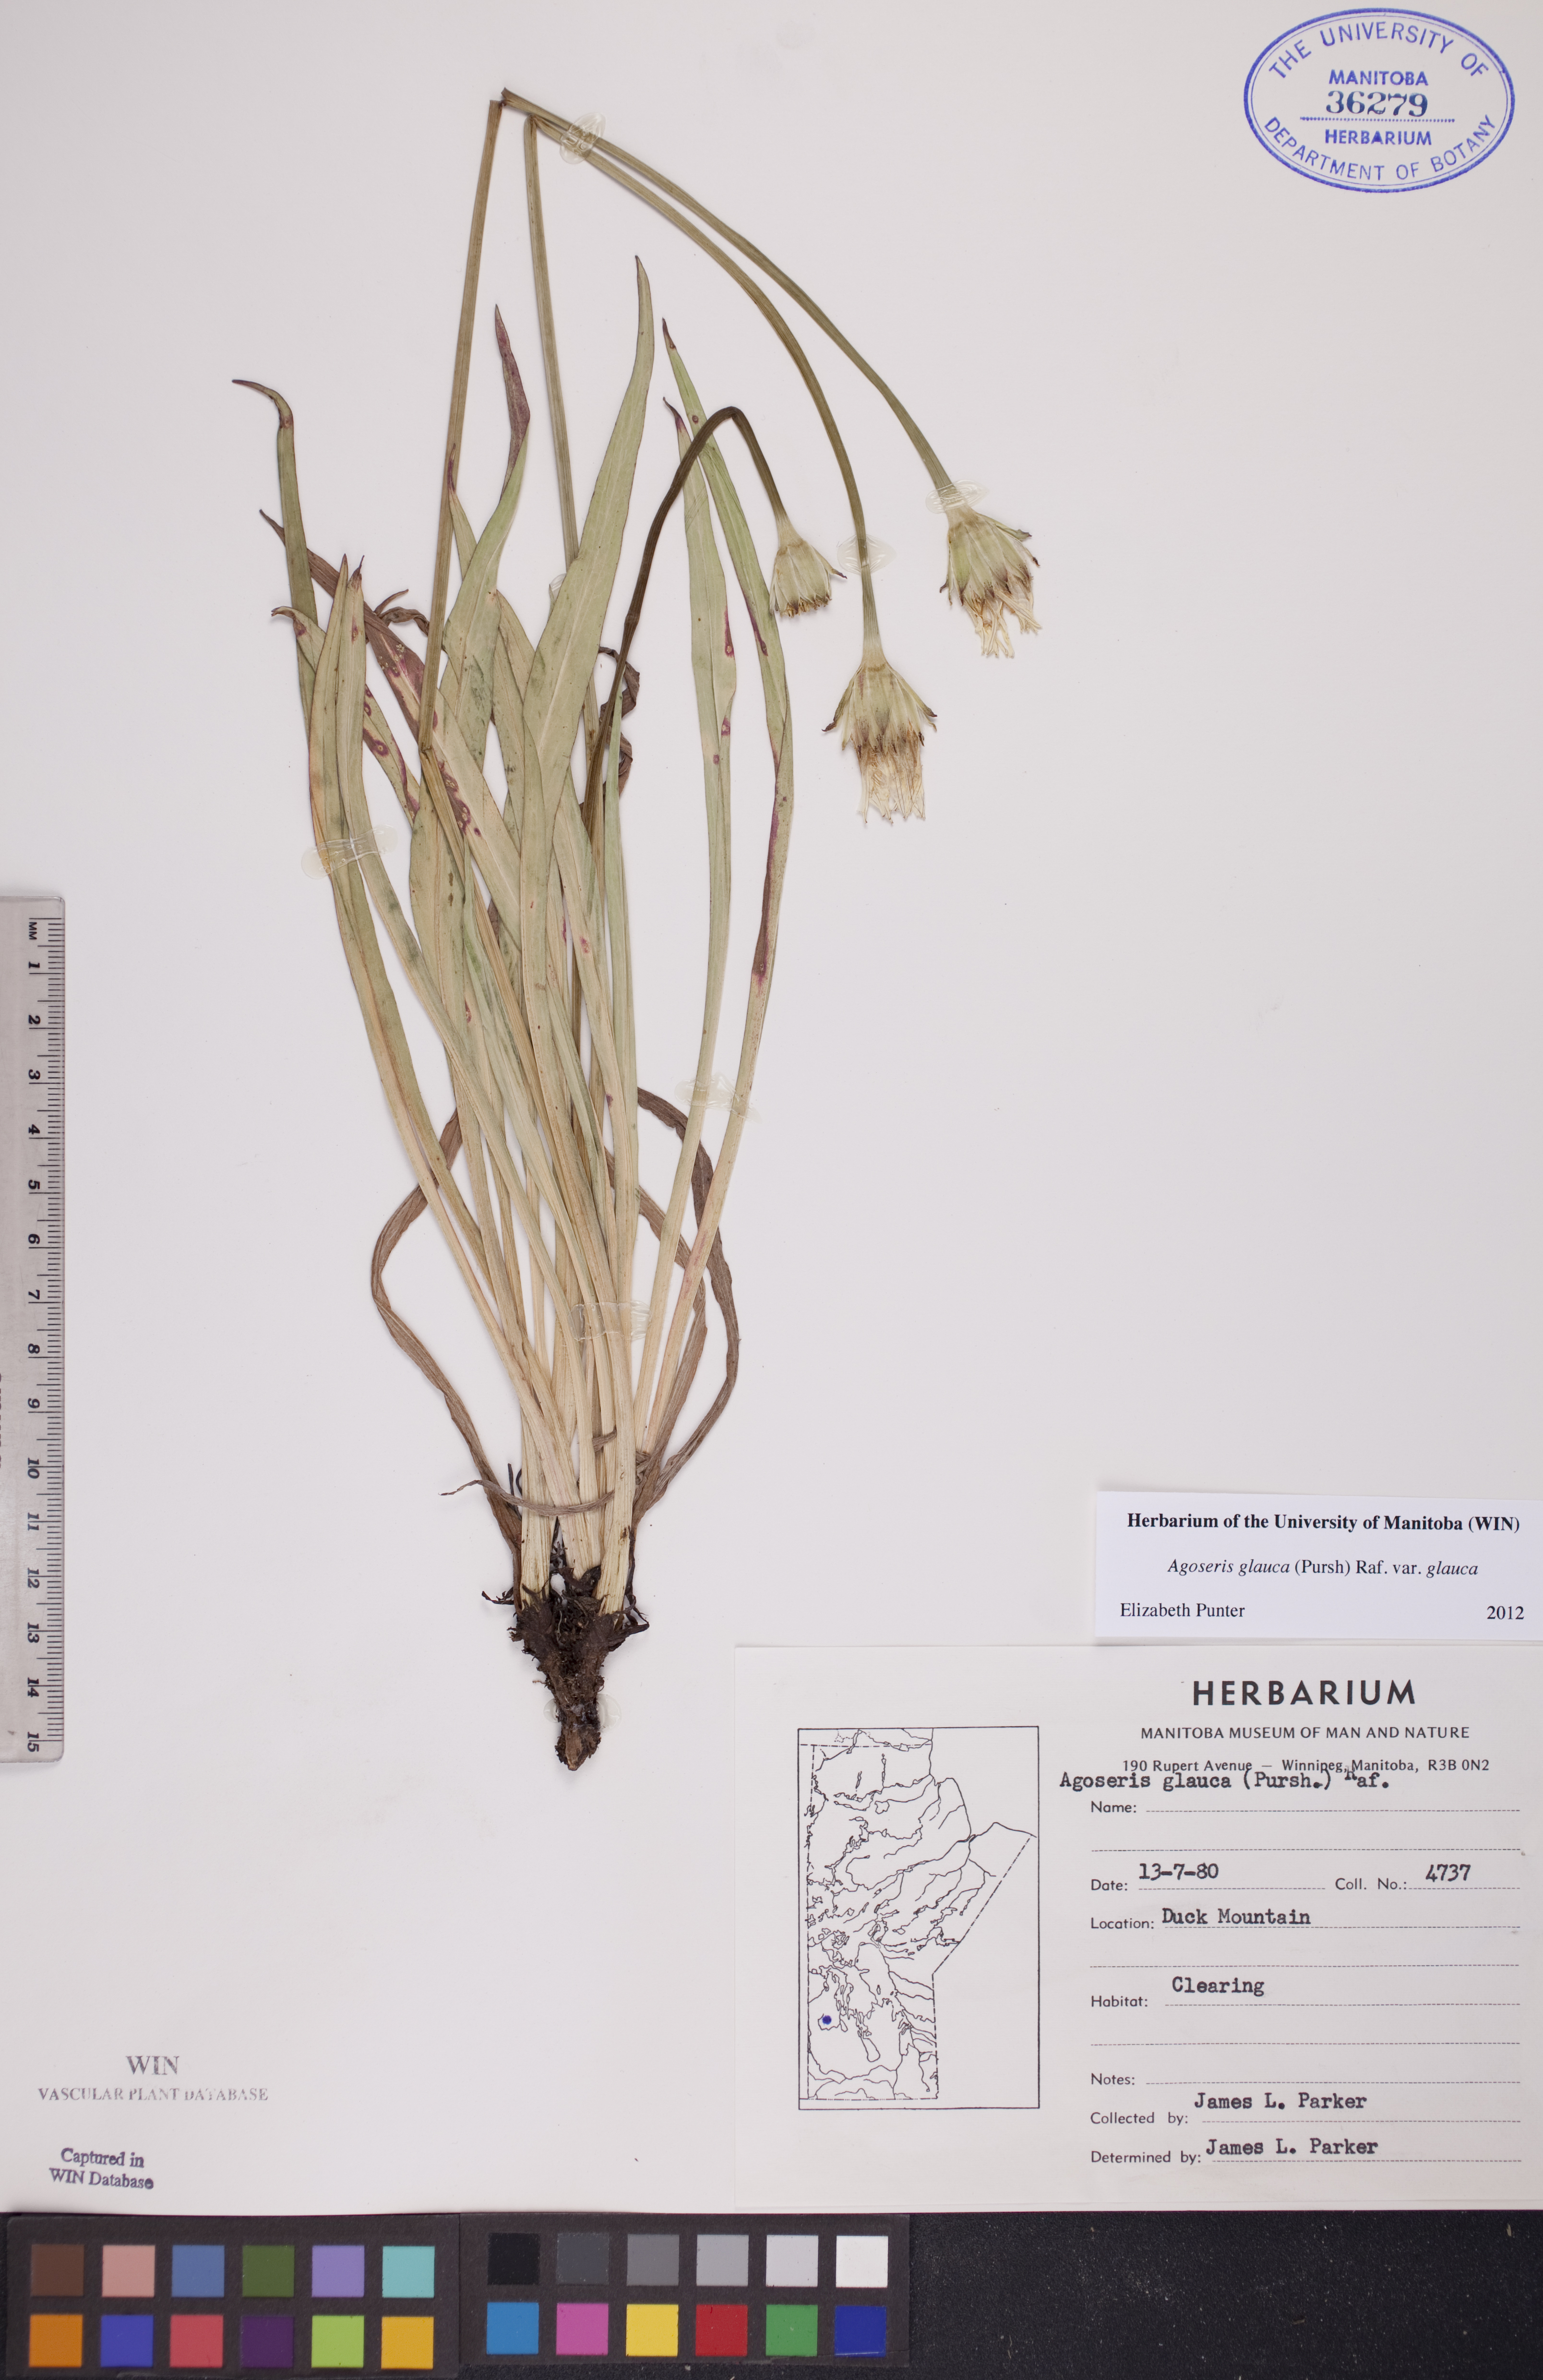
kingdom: Plantae
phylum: Tracheophyta
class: Magnoliopsida
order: Asterales
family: Asteraceae
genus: Agoseris
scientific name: Agoseris glauca
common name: Prairie agoseris
